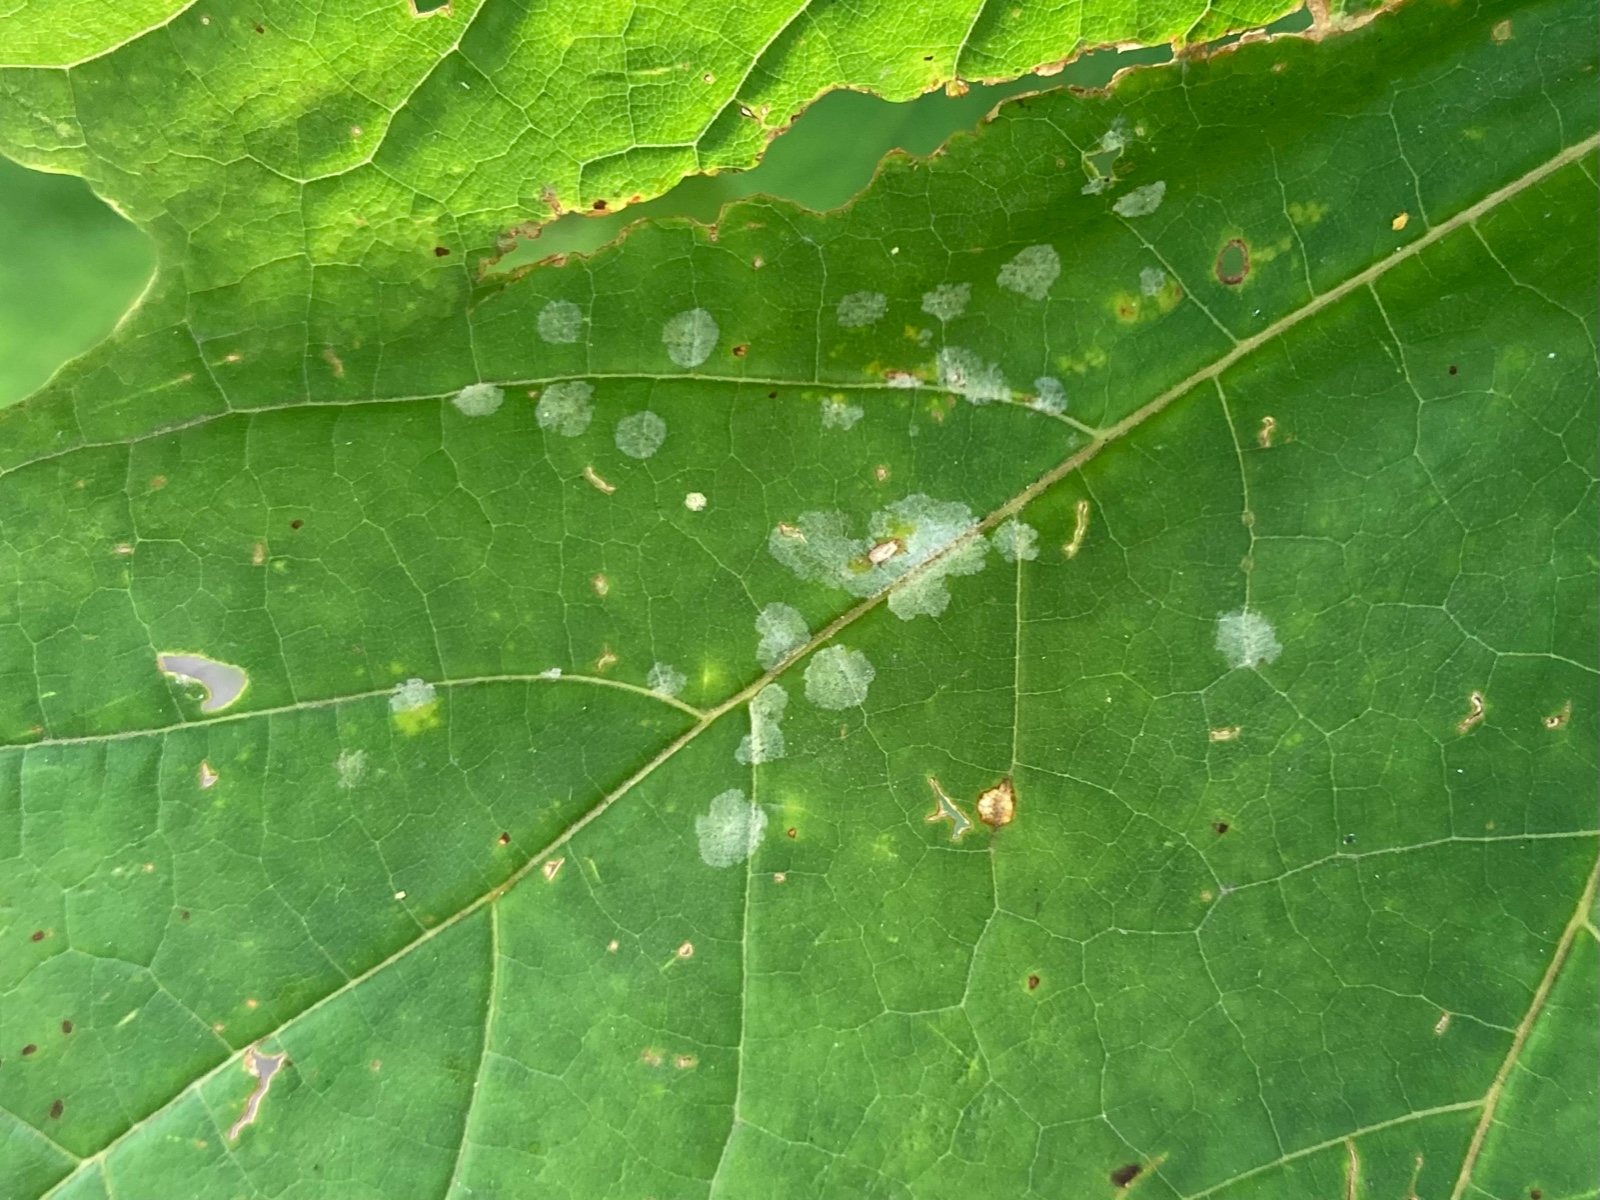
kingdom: Fungi
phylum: Ascomycota
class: Leotiomycetes
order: Helotiales
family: Erysiphaceae
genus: Sawadaea
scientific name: Sawadaea tulasnei
